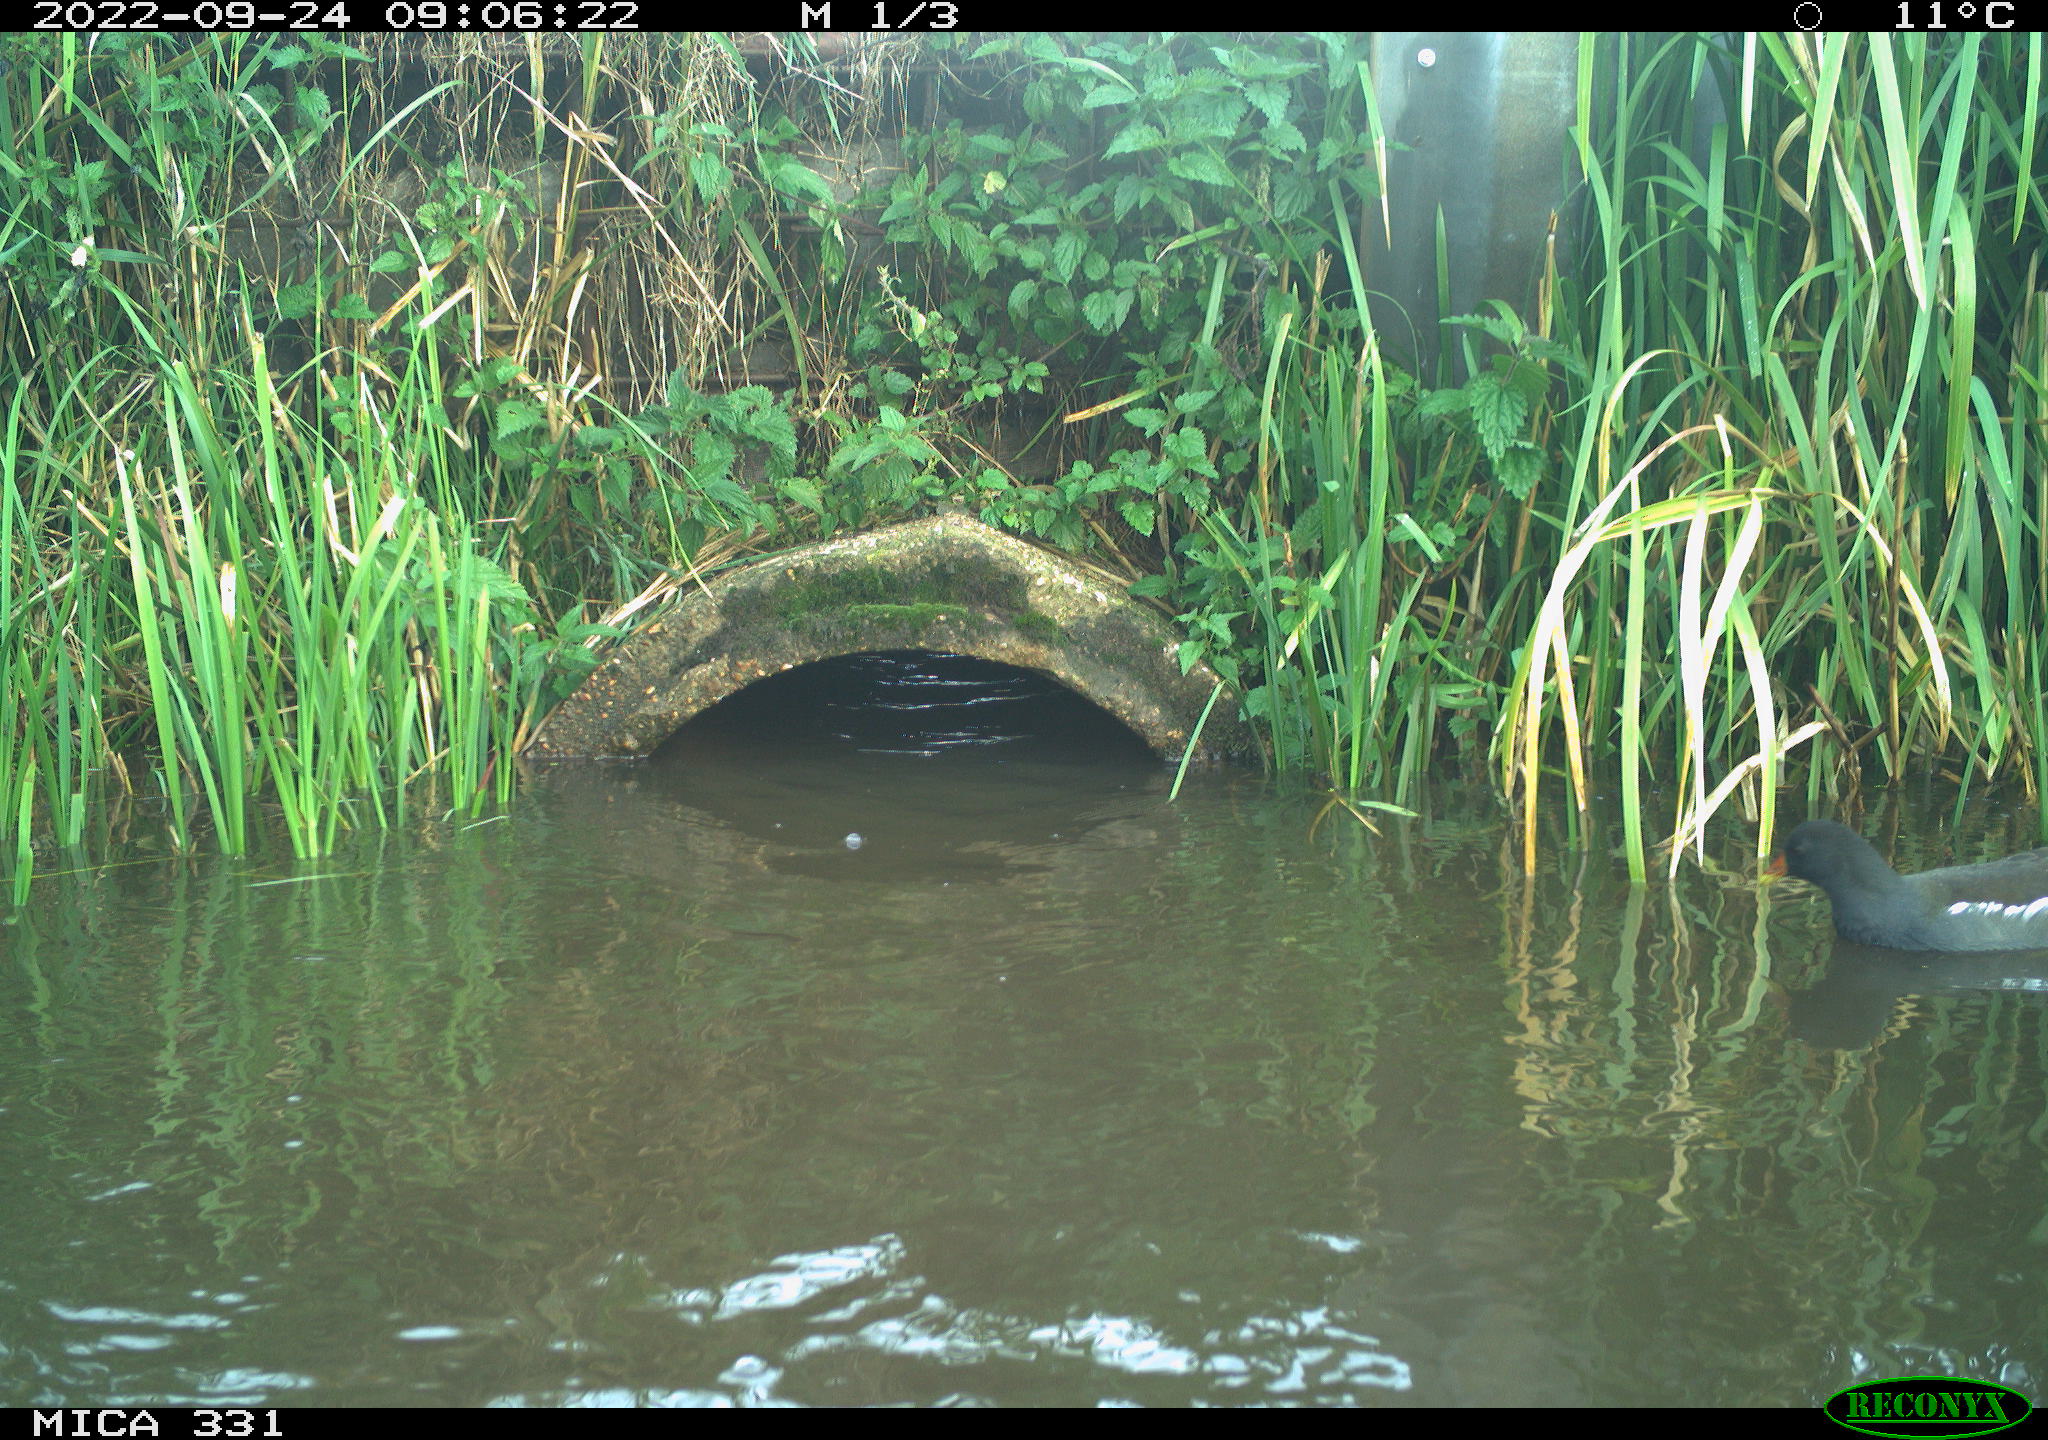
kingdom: Animalia
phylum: Chordata
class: Aves
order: Gruiformes
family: Rallidae
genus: Gallinula
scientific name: Gallinula chloropus
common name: Common moorhen
